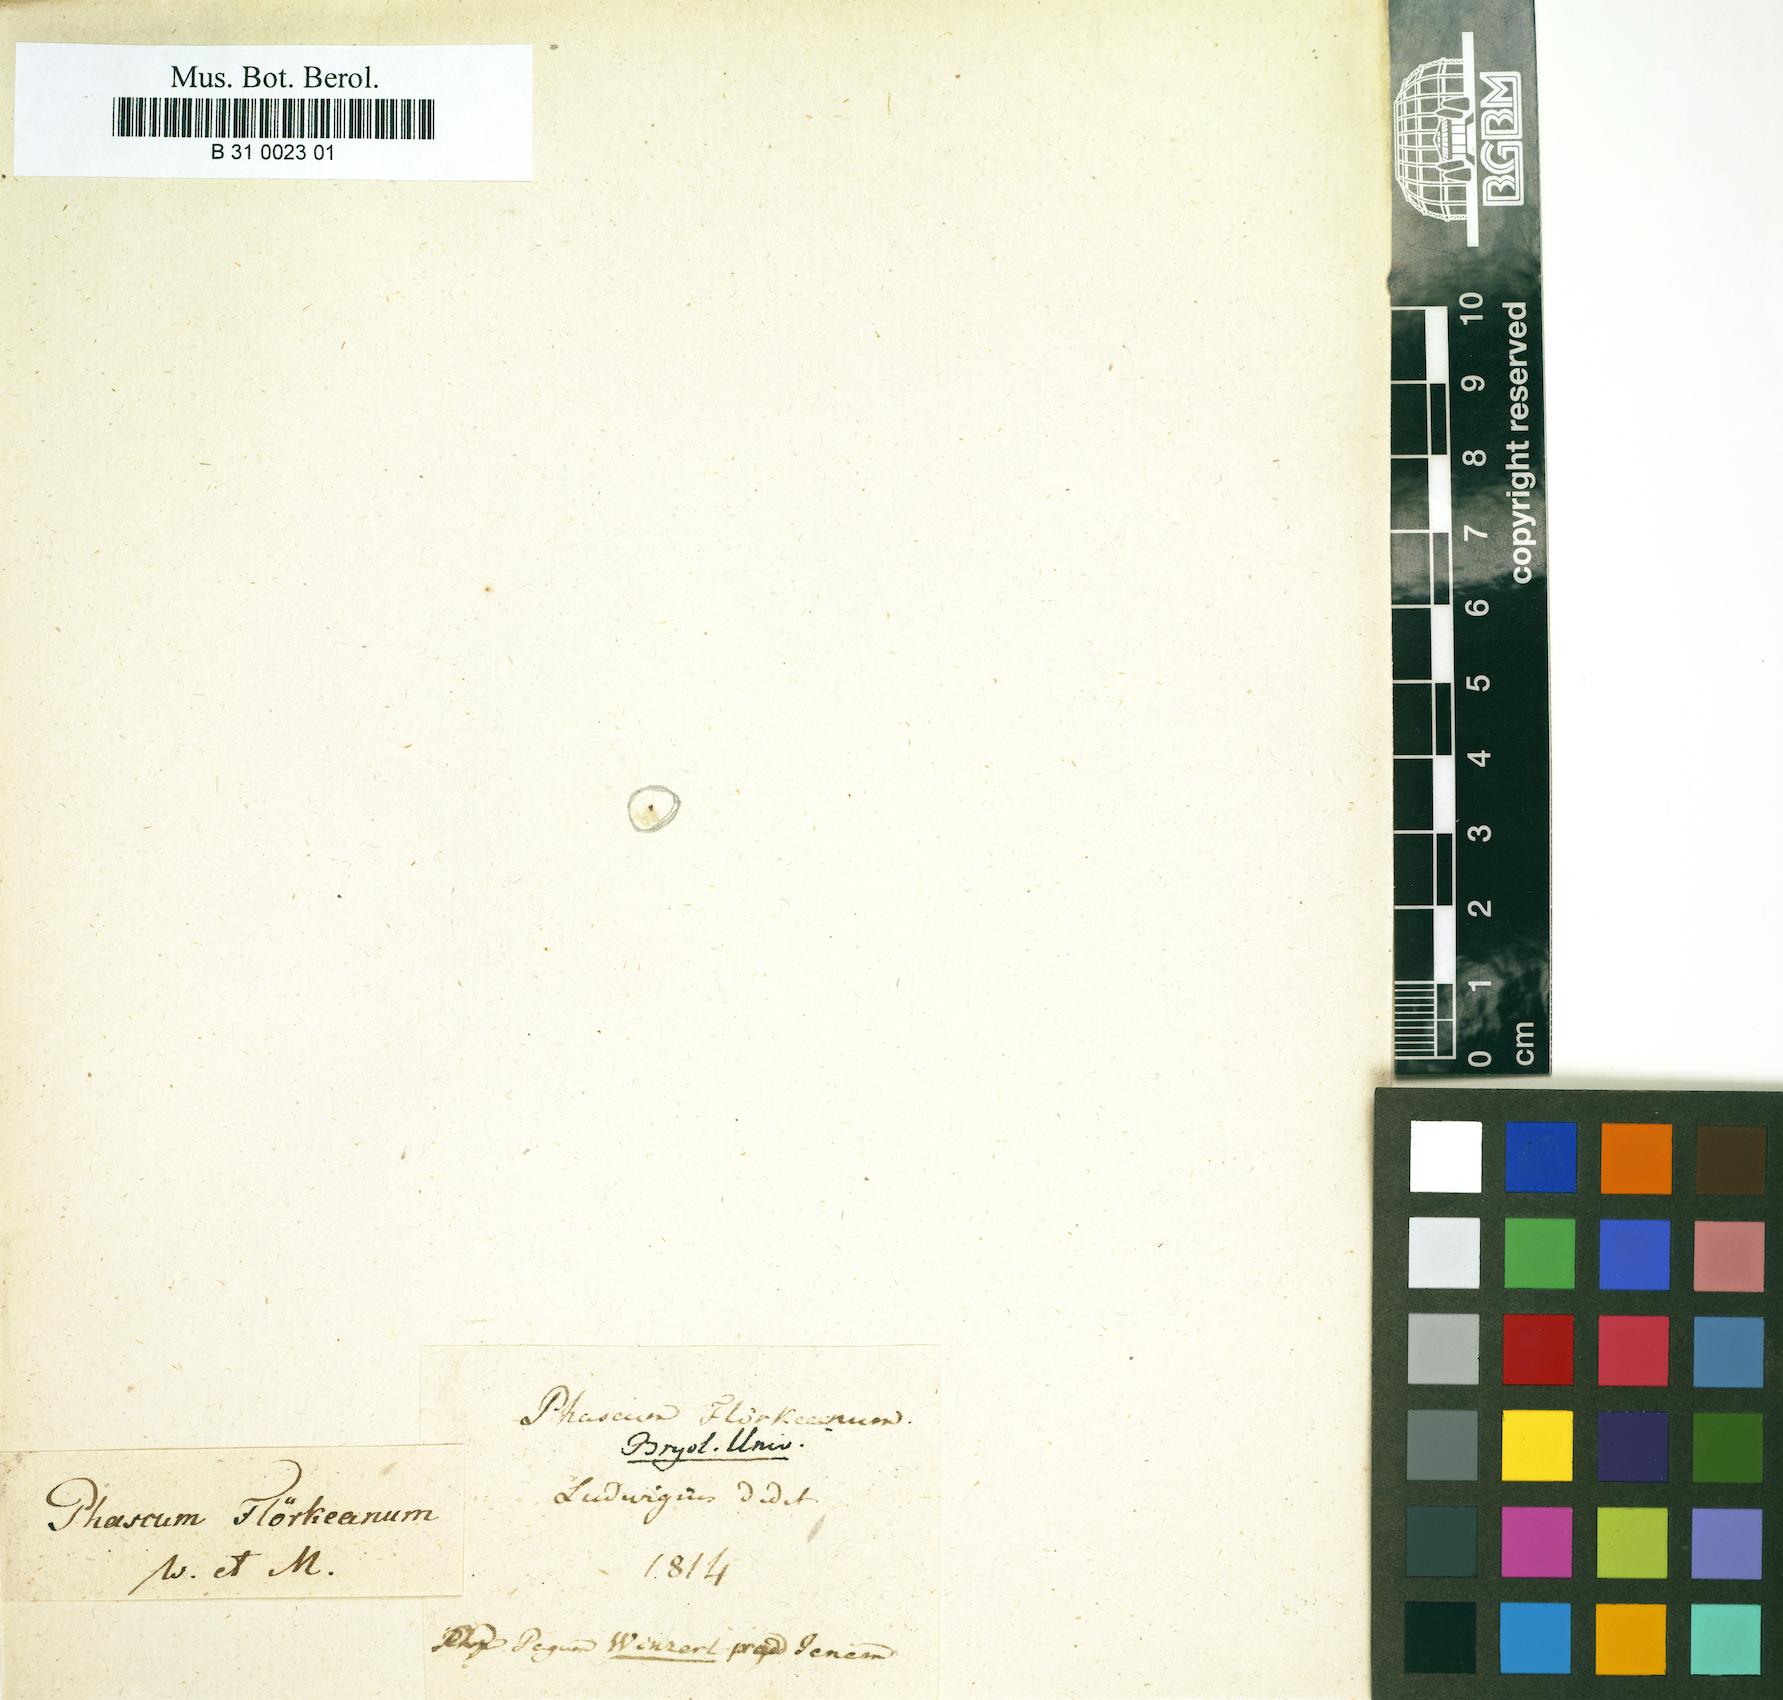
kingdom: Plantae
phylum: Bryophyta
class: Bryopsida
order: Pottiales
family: Pottiaceae
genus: Microbryum
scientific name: Microbryum floerkeanum
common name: Floerke's phascum
